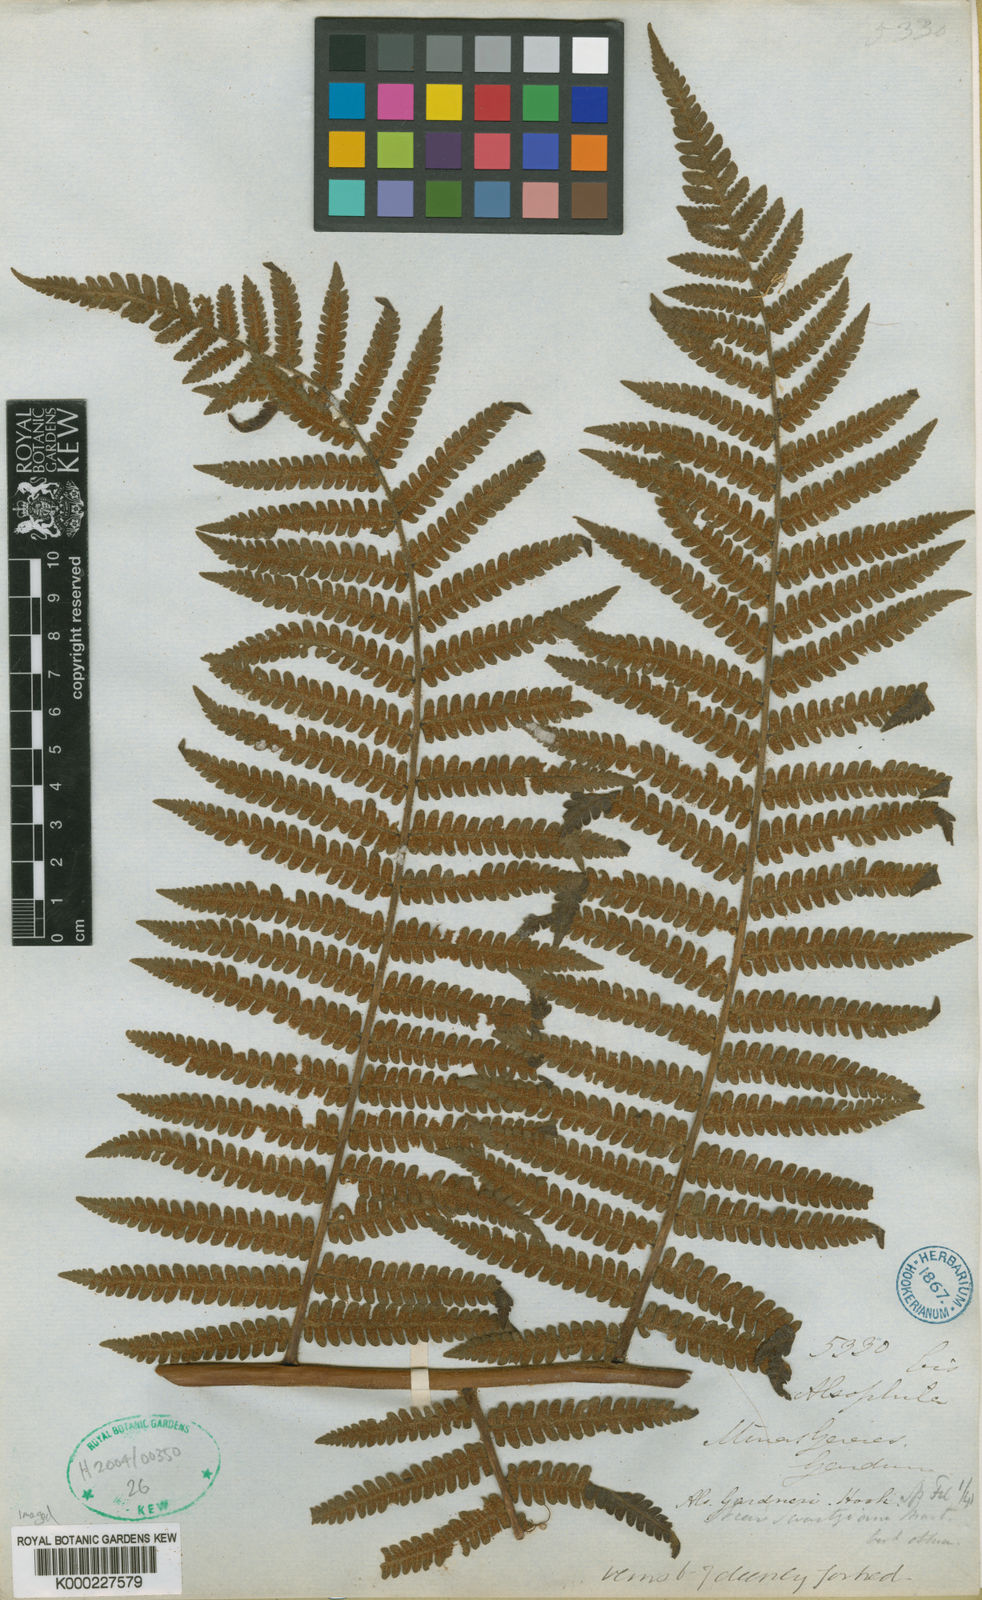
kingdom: Plantae
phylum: Tracheophyta
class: Polypodiopsida
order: Cyatheales
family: Cyatheaceae
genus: Sphaeropteris
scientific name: Sphaeropteris gardneri
